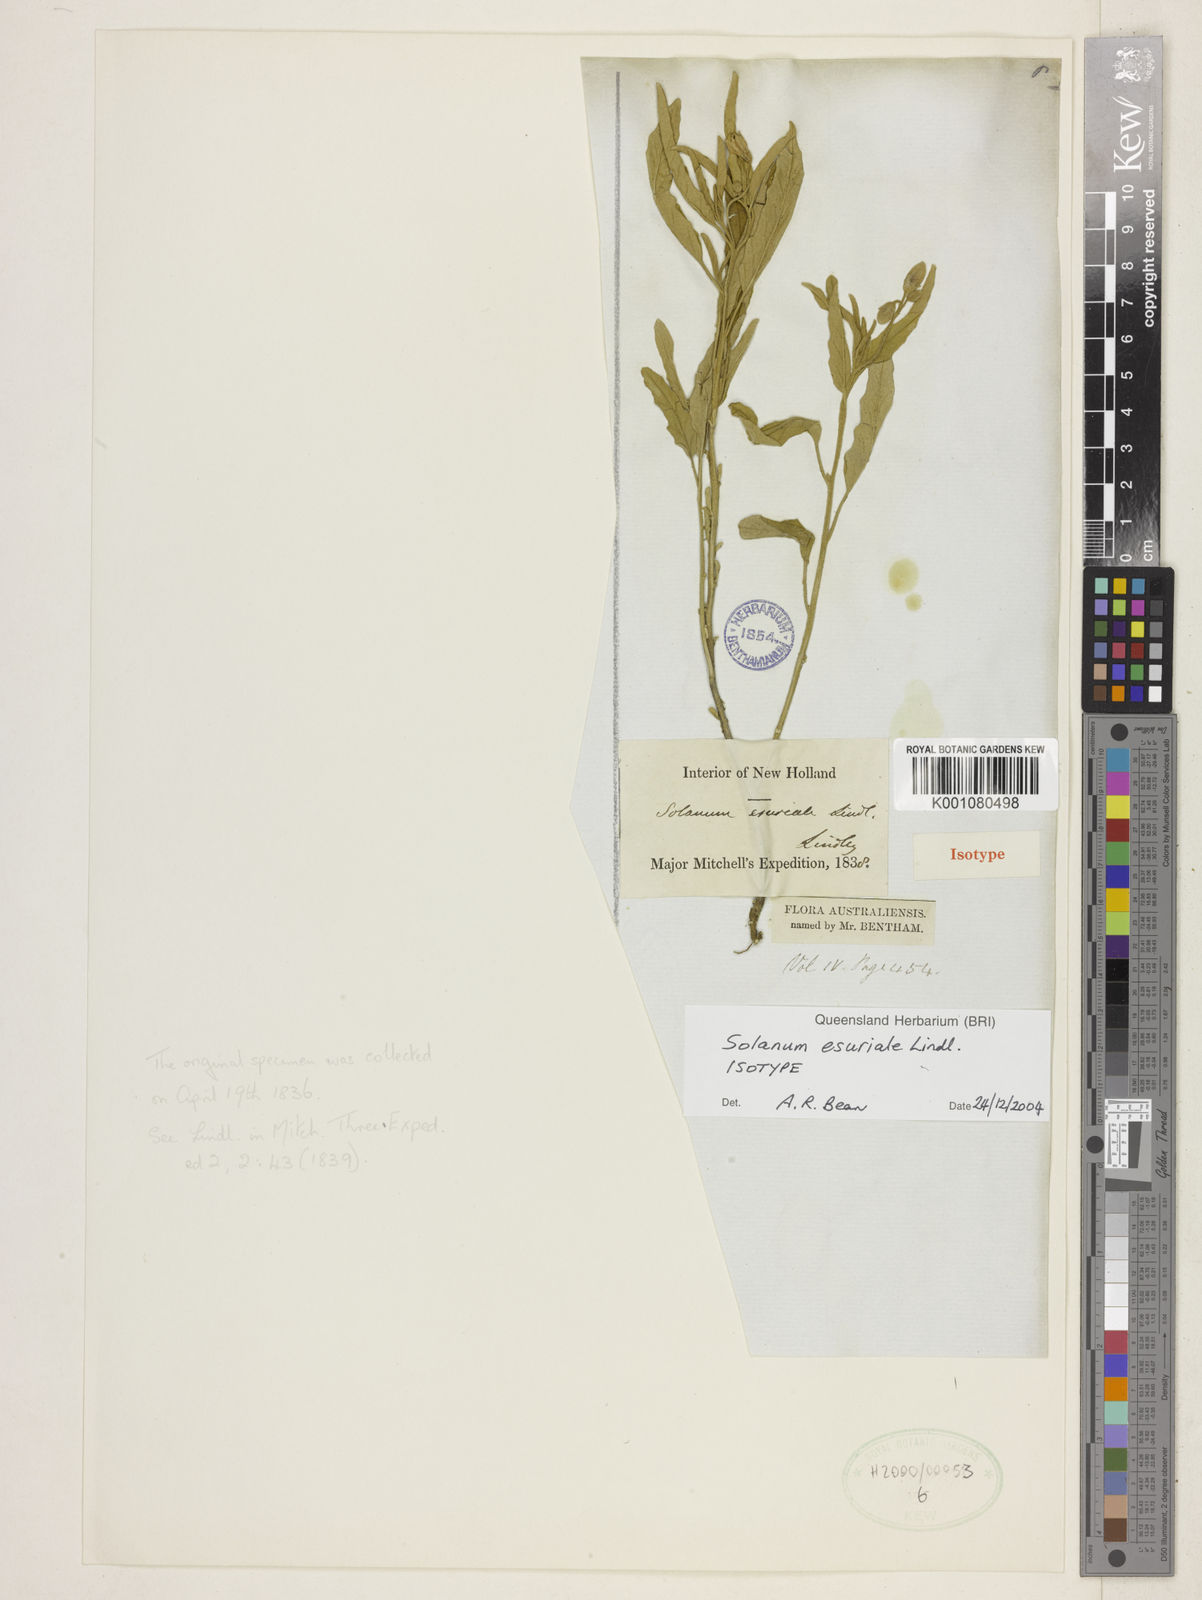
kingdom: Plantae
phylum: Tracheophyta
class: Magnoliopsida
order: Solanales
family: Solanaceae
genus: Solanum
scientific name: Solanum esuriale
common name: Wild tomato
